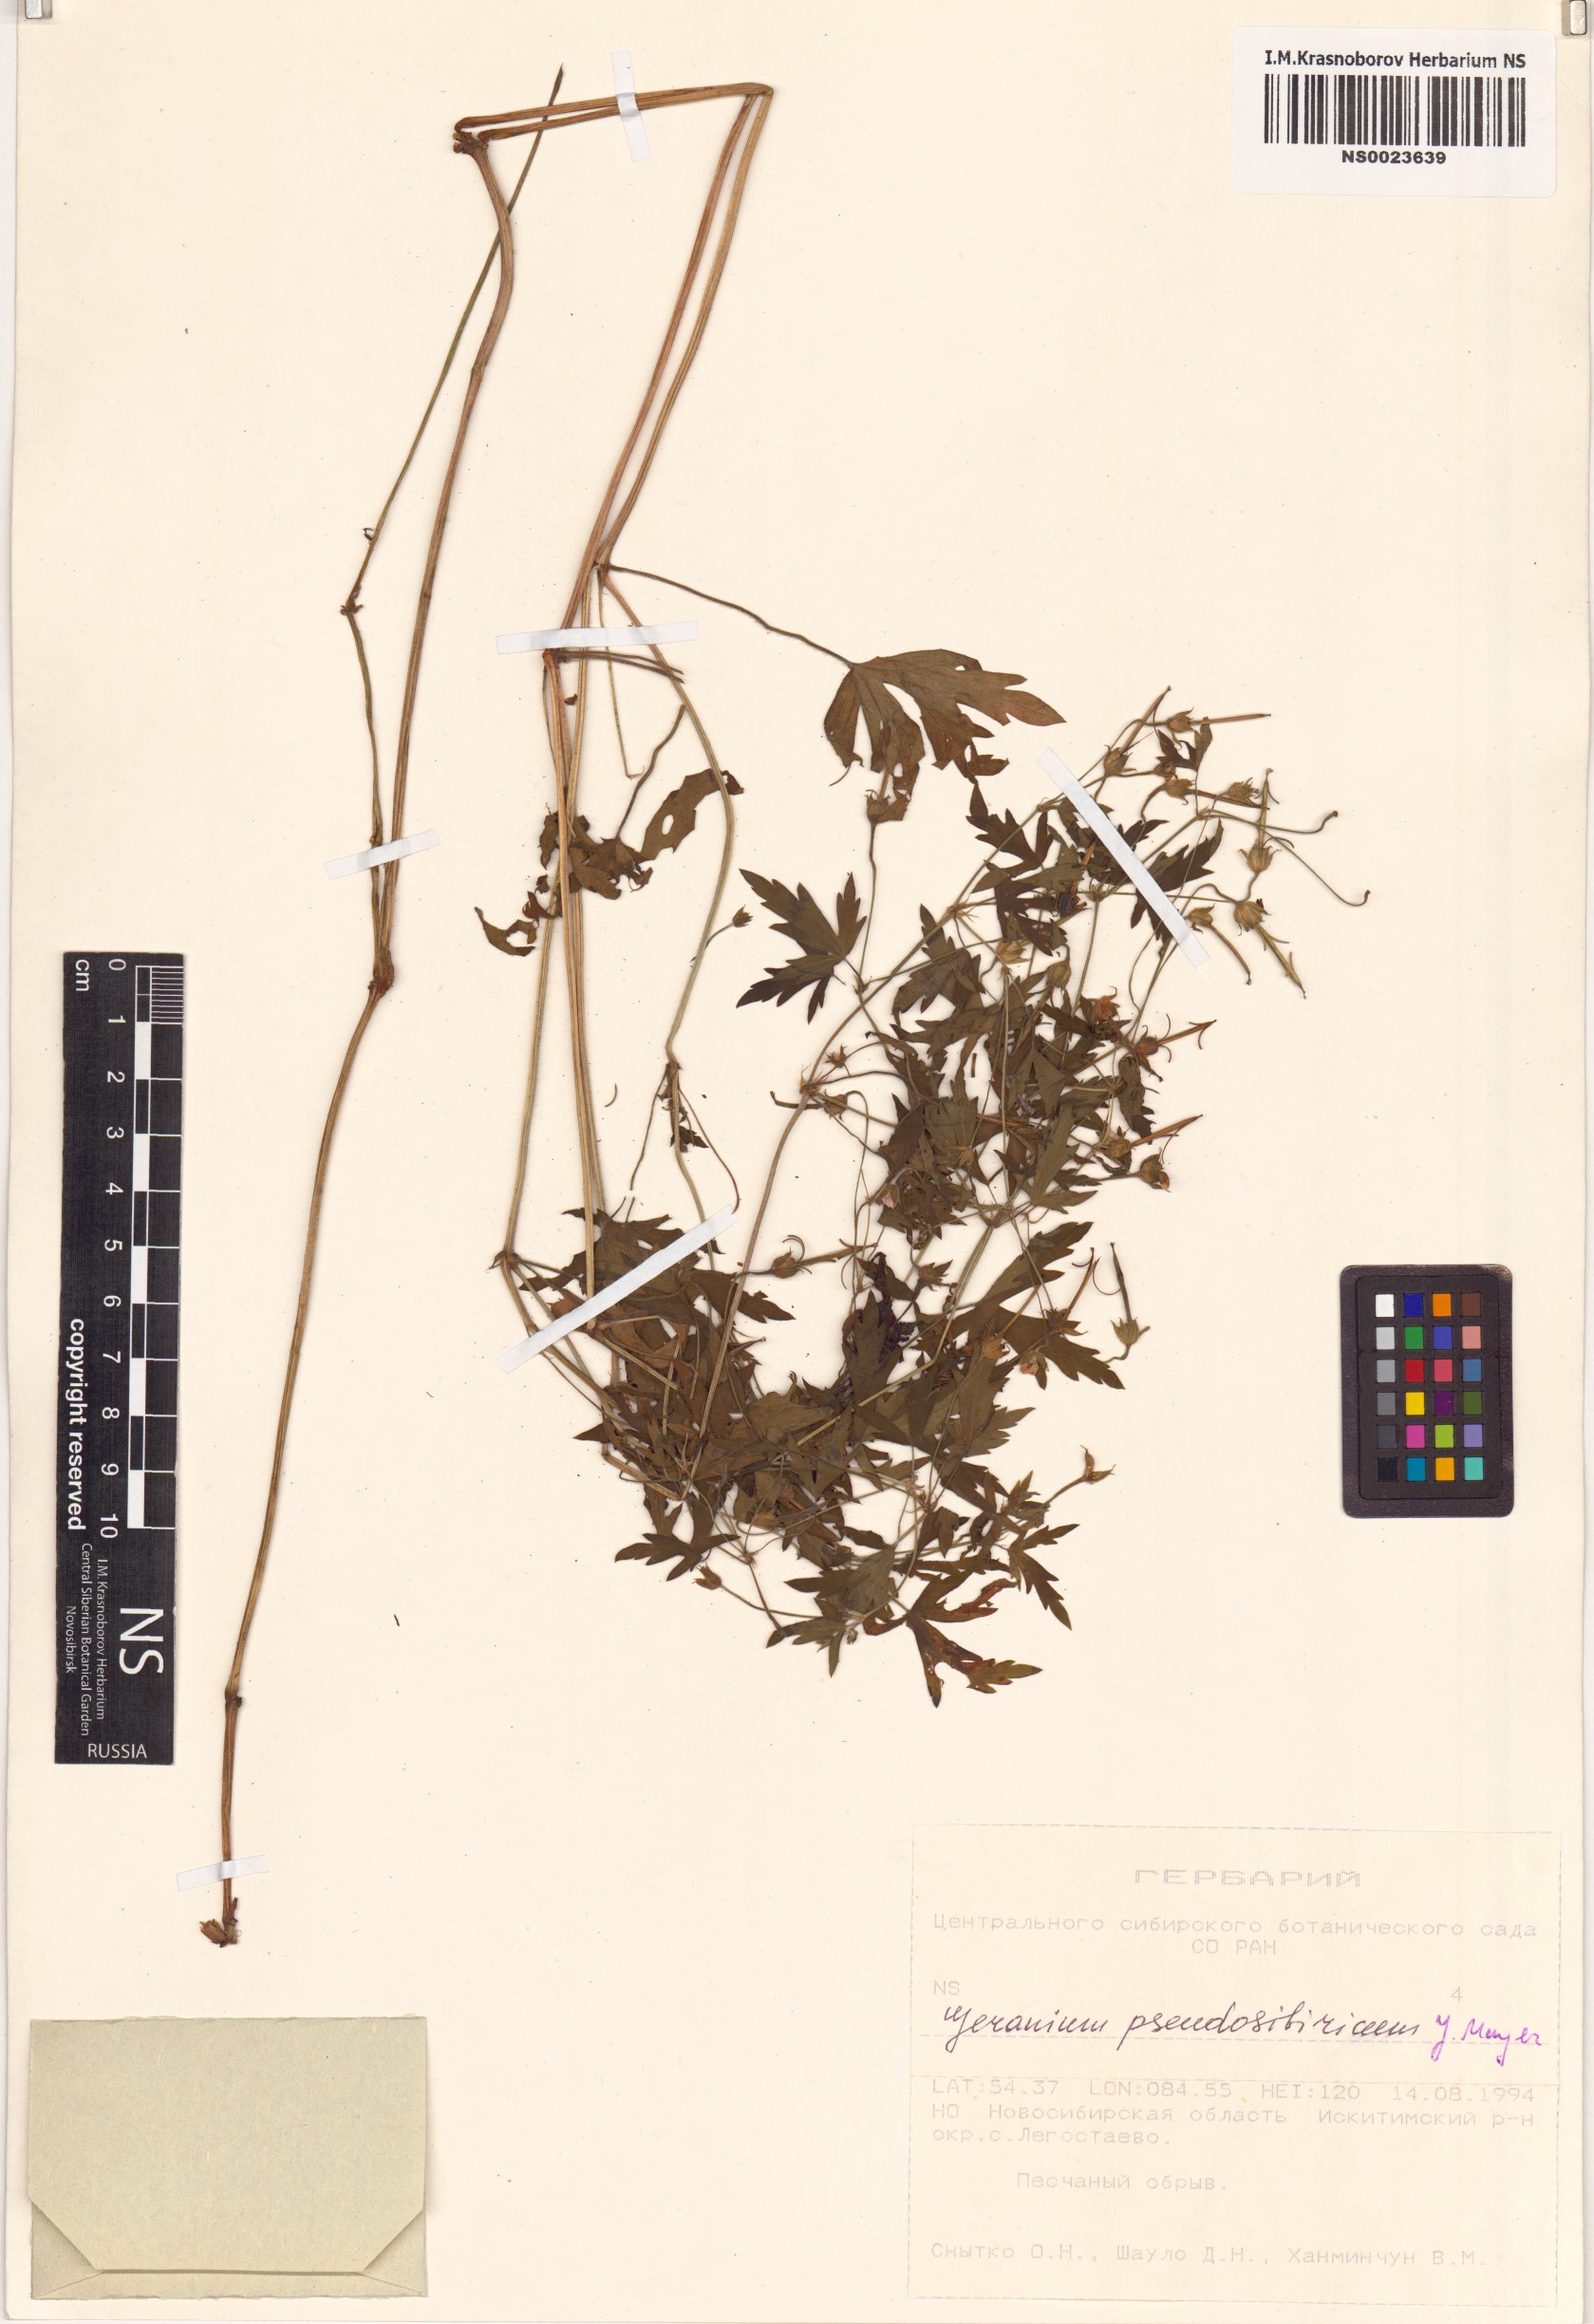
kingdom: Plantae
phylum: Tracheophyta
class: Magnoliopsida
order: Geraniales
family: Geraniaceae
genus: Geranium
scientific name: Geranium pseudosibiricum
